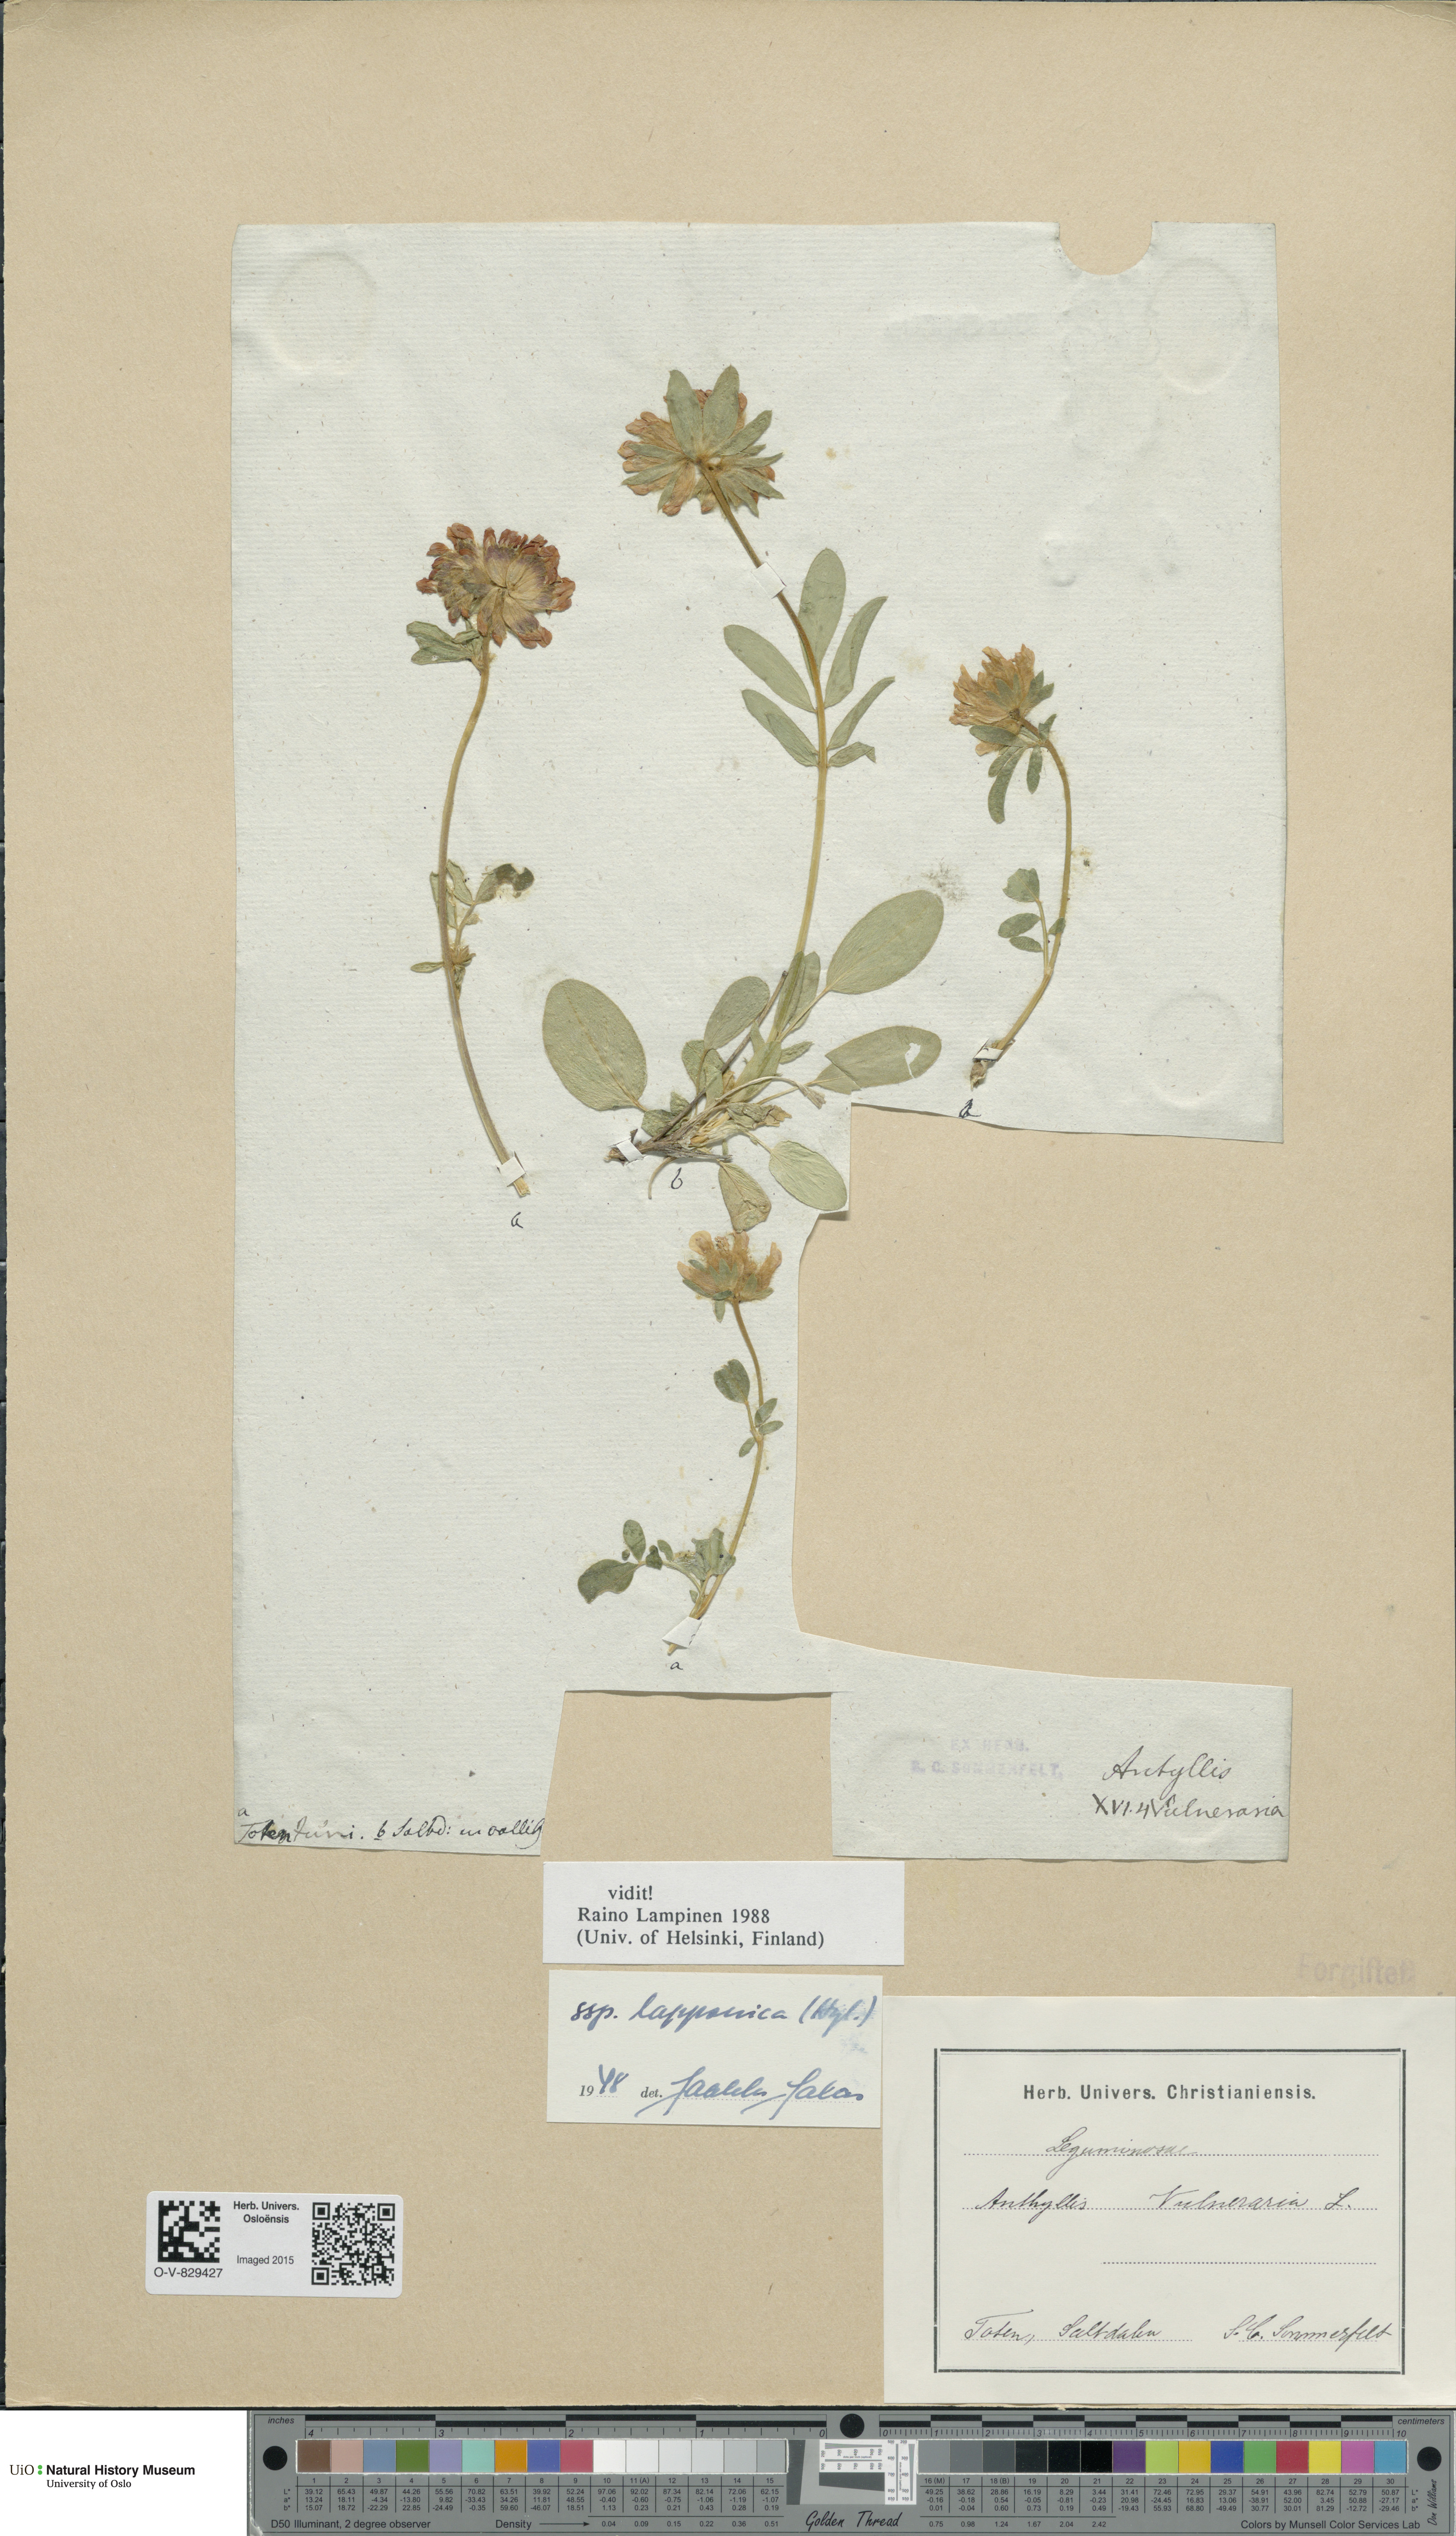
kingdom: Plantae
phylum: Tracheophyta
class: Magnoliopsida
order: Fabales
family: Fabaceae
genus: Anthyllis
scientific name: Anthyllis vulneraria
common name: Kidney vetch
